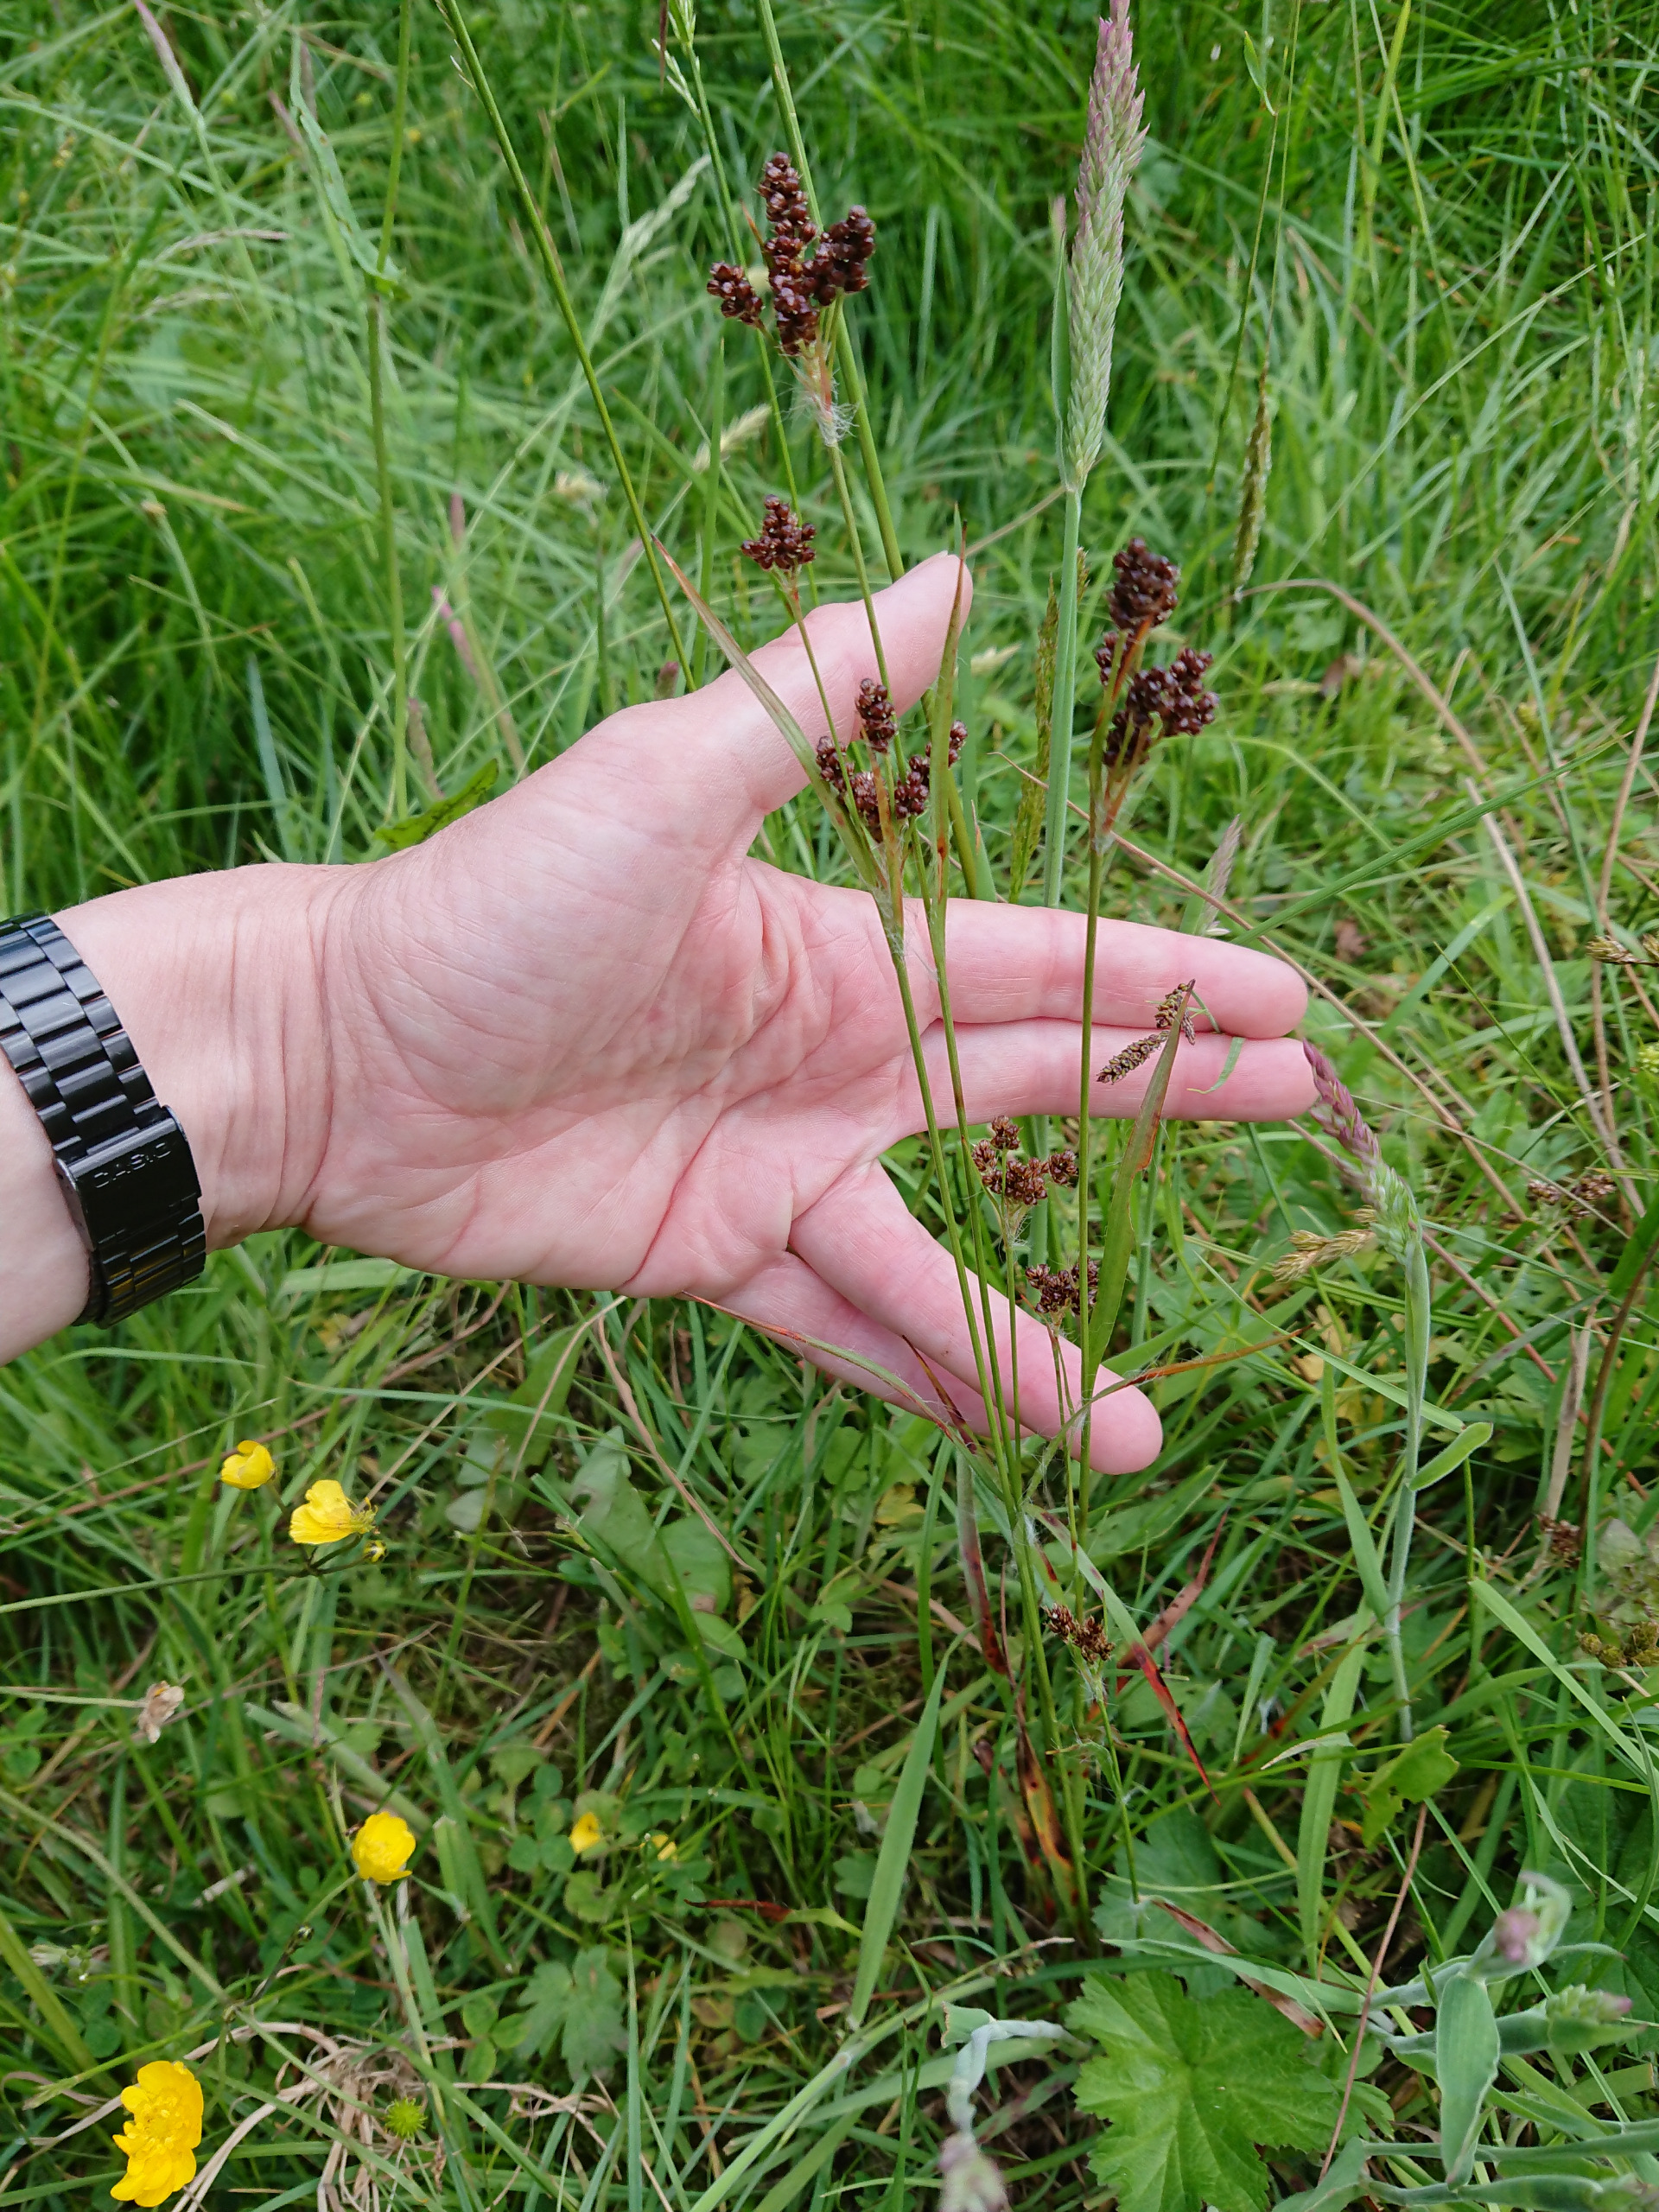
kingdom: Plantae
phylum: Tracheophyta
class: Liliopsida
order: Poales
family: Juncaceae
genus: Luzula
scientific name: Luzula multiflora
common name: Mangeblomstret frytle
